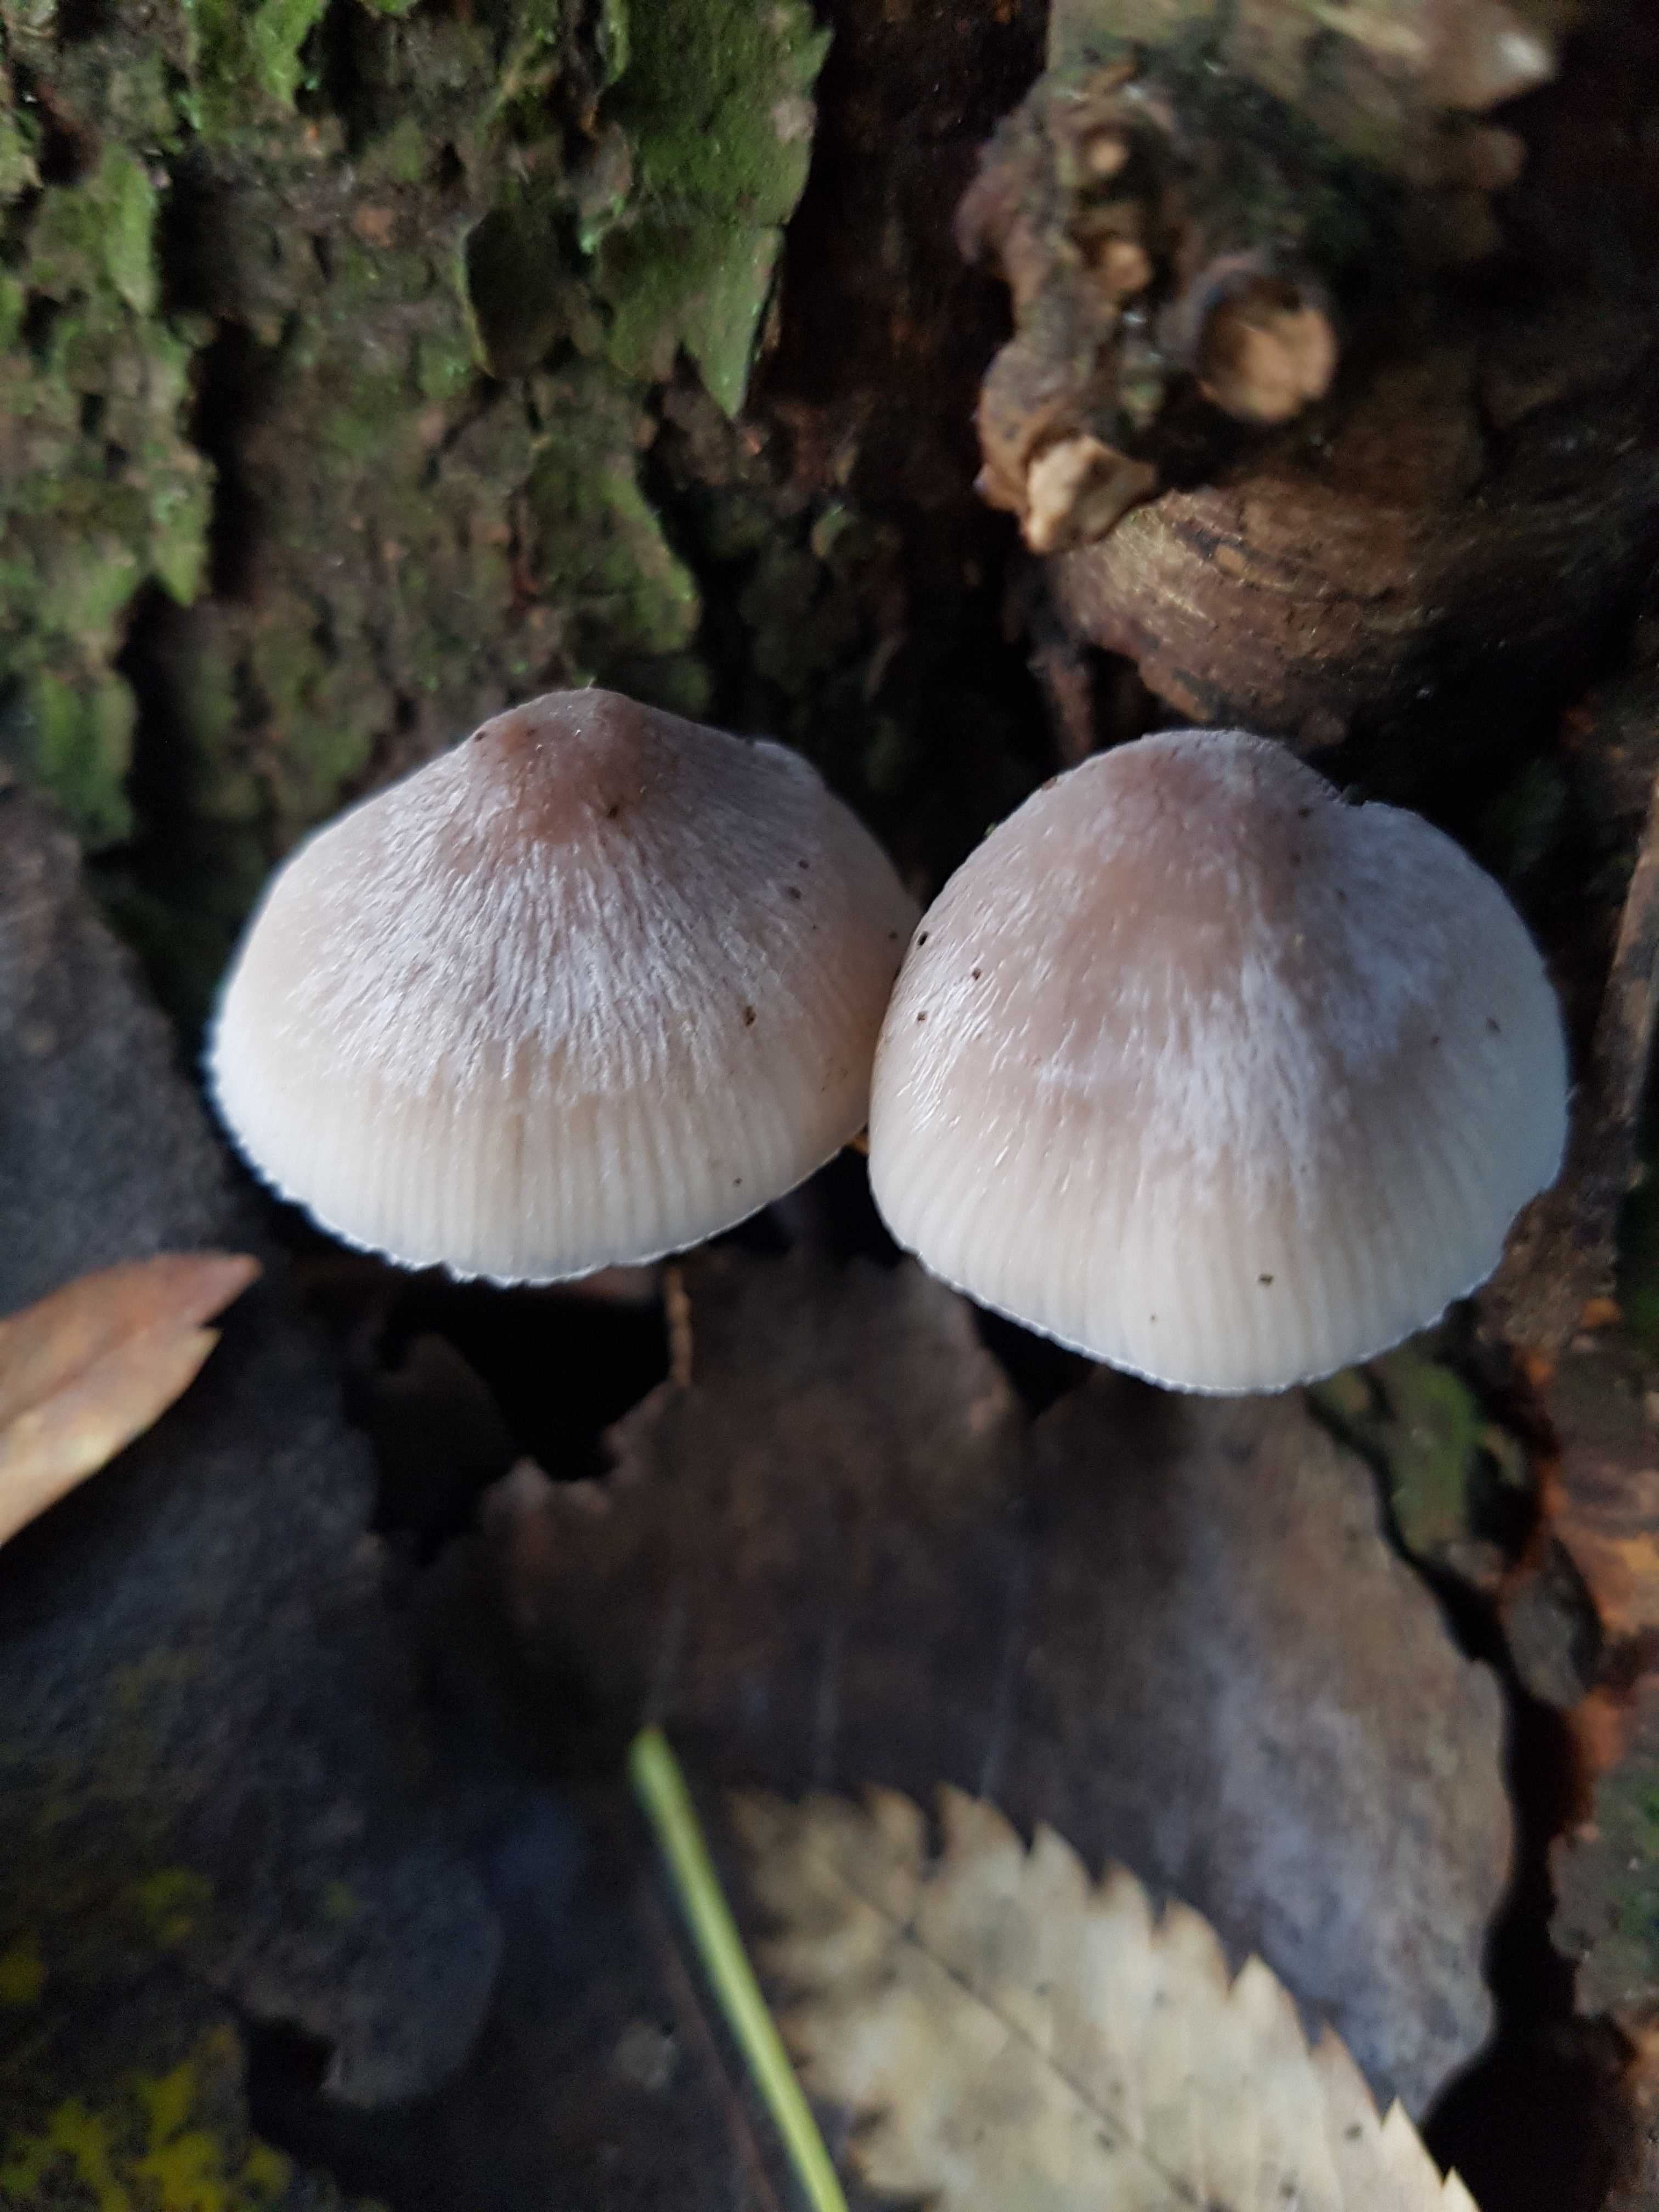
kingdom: Fungi
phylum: Basidiomycota
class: Agaricomycetes
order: Agaricales
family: Mycenaceae
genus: Mycena
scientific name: Mycena
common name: huesvamp
